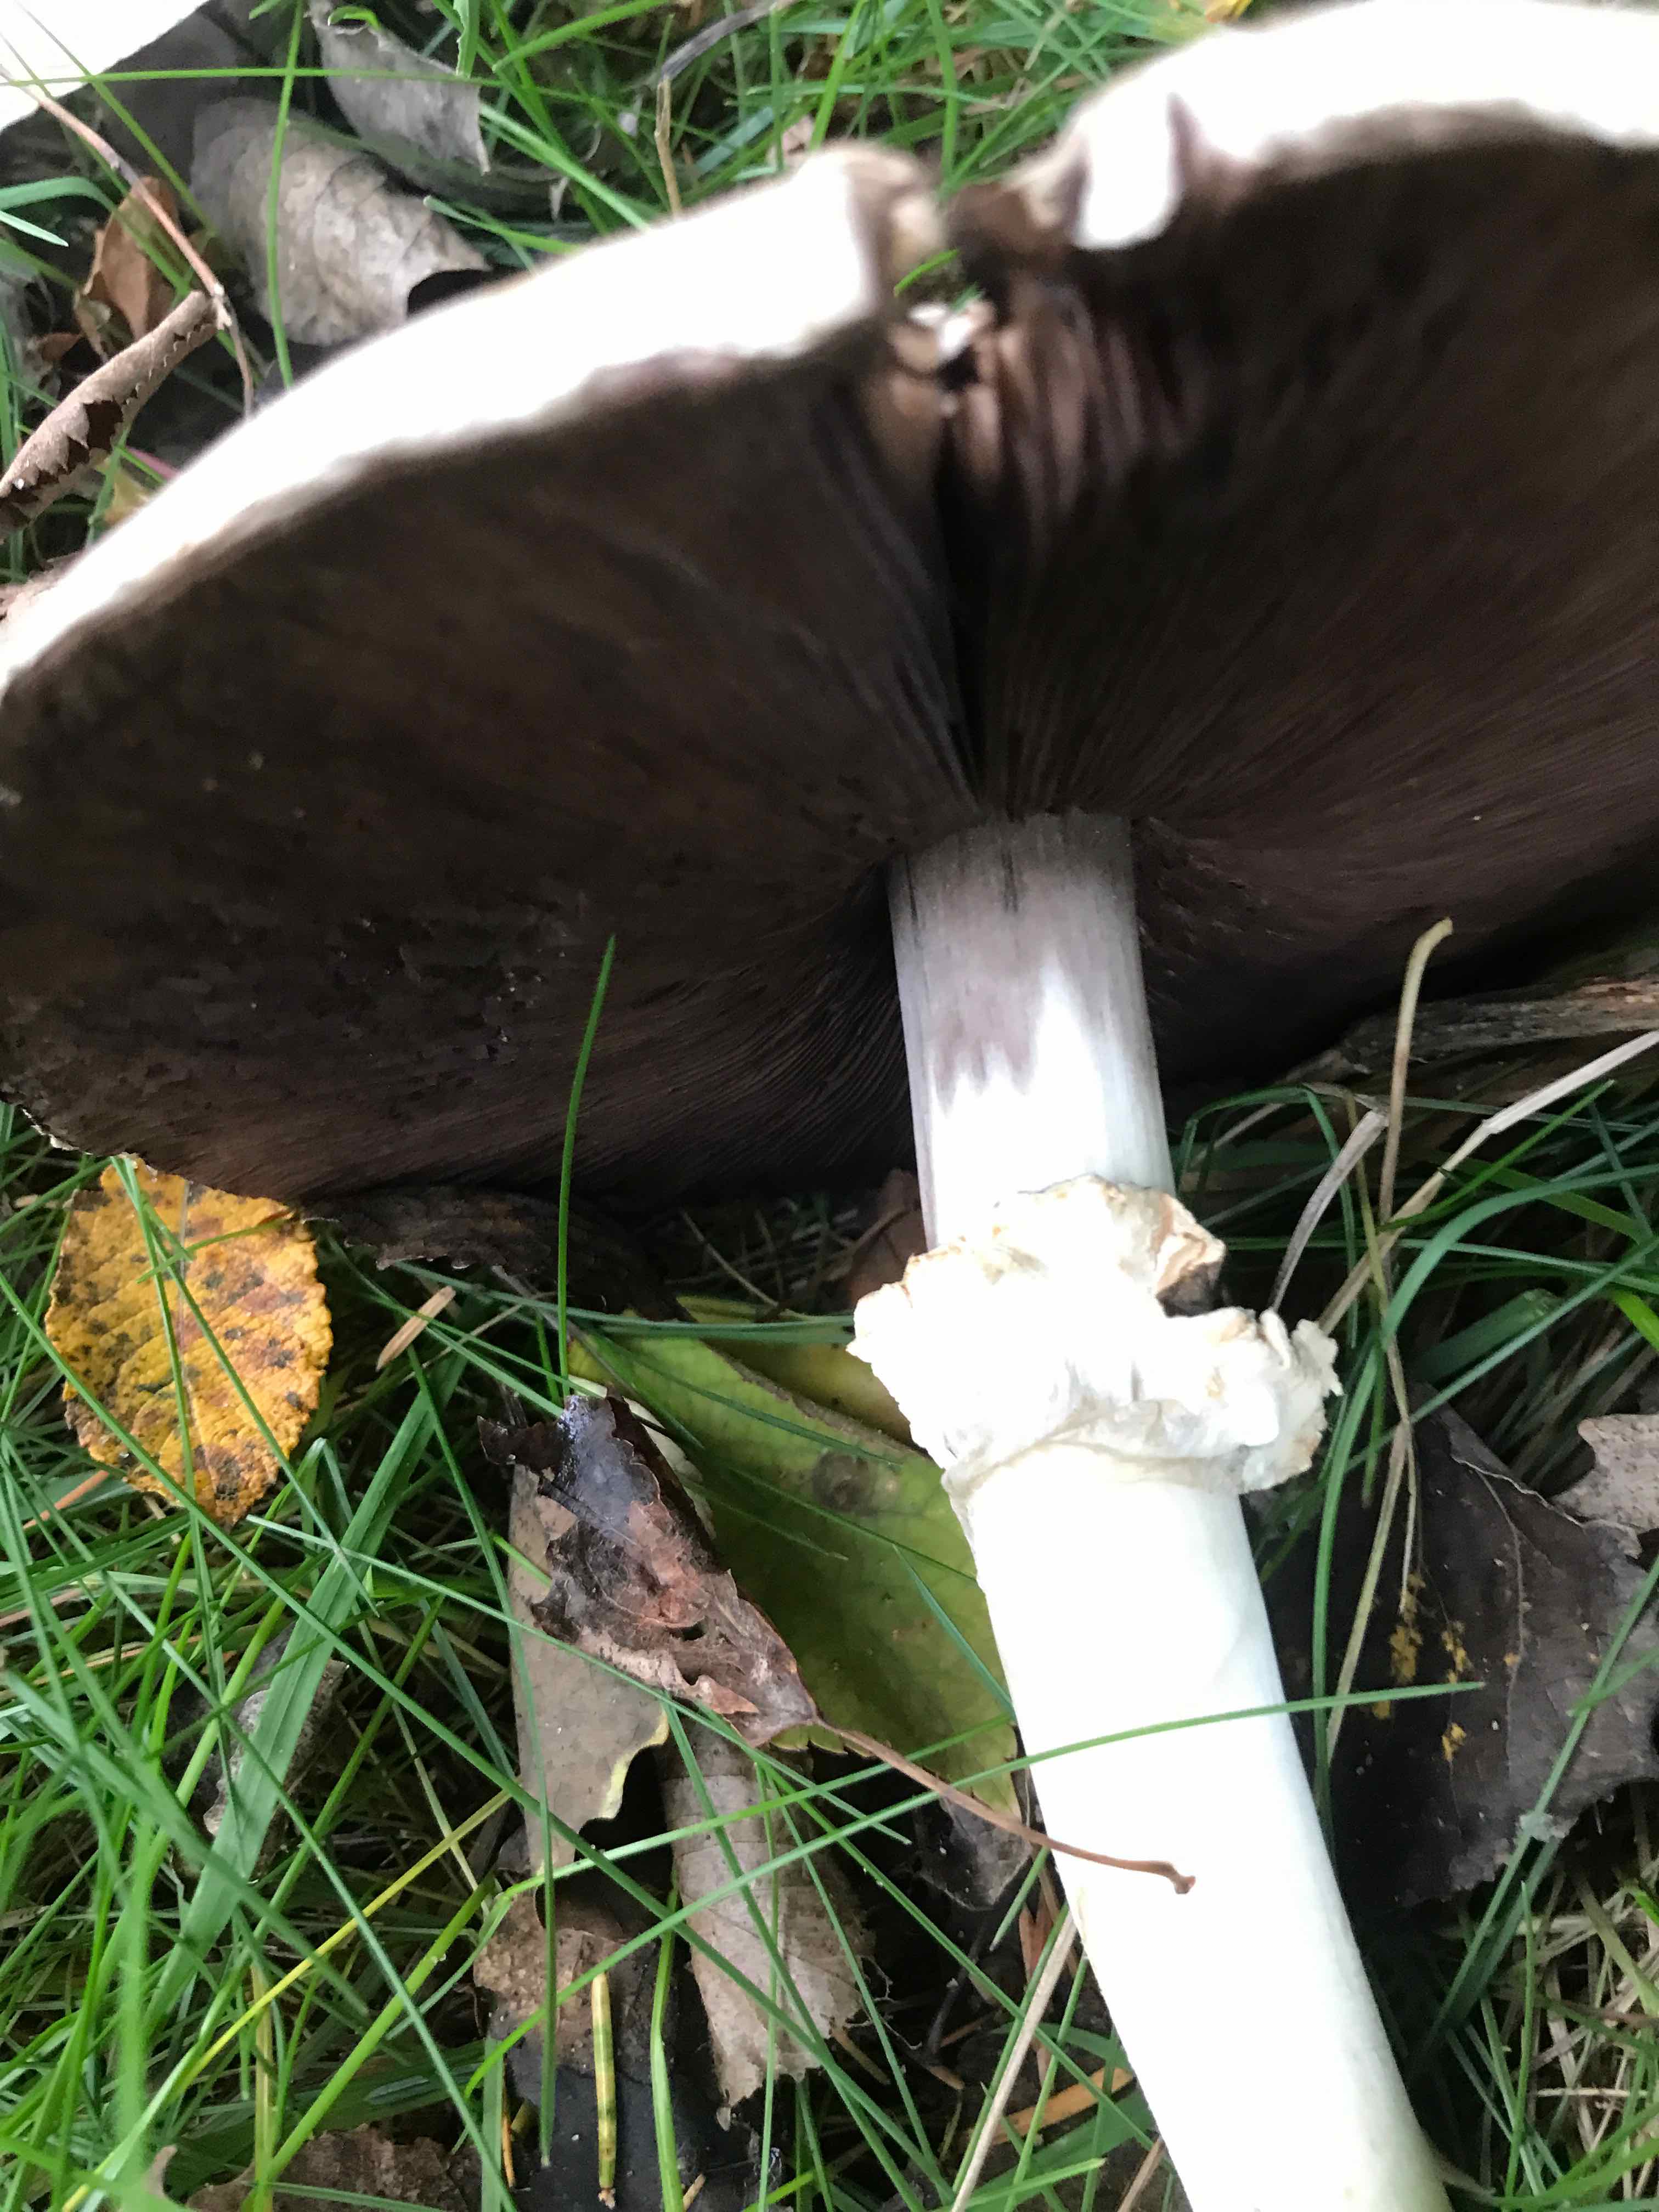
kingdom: Fungi
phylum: Basidiomycota
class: Agaricomycetes
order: Agaricales
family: Agaricaceae
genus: Agaricus
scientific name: Agaricus
